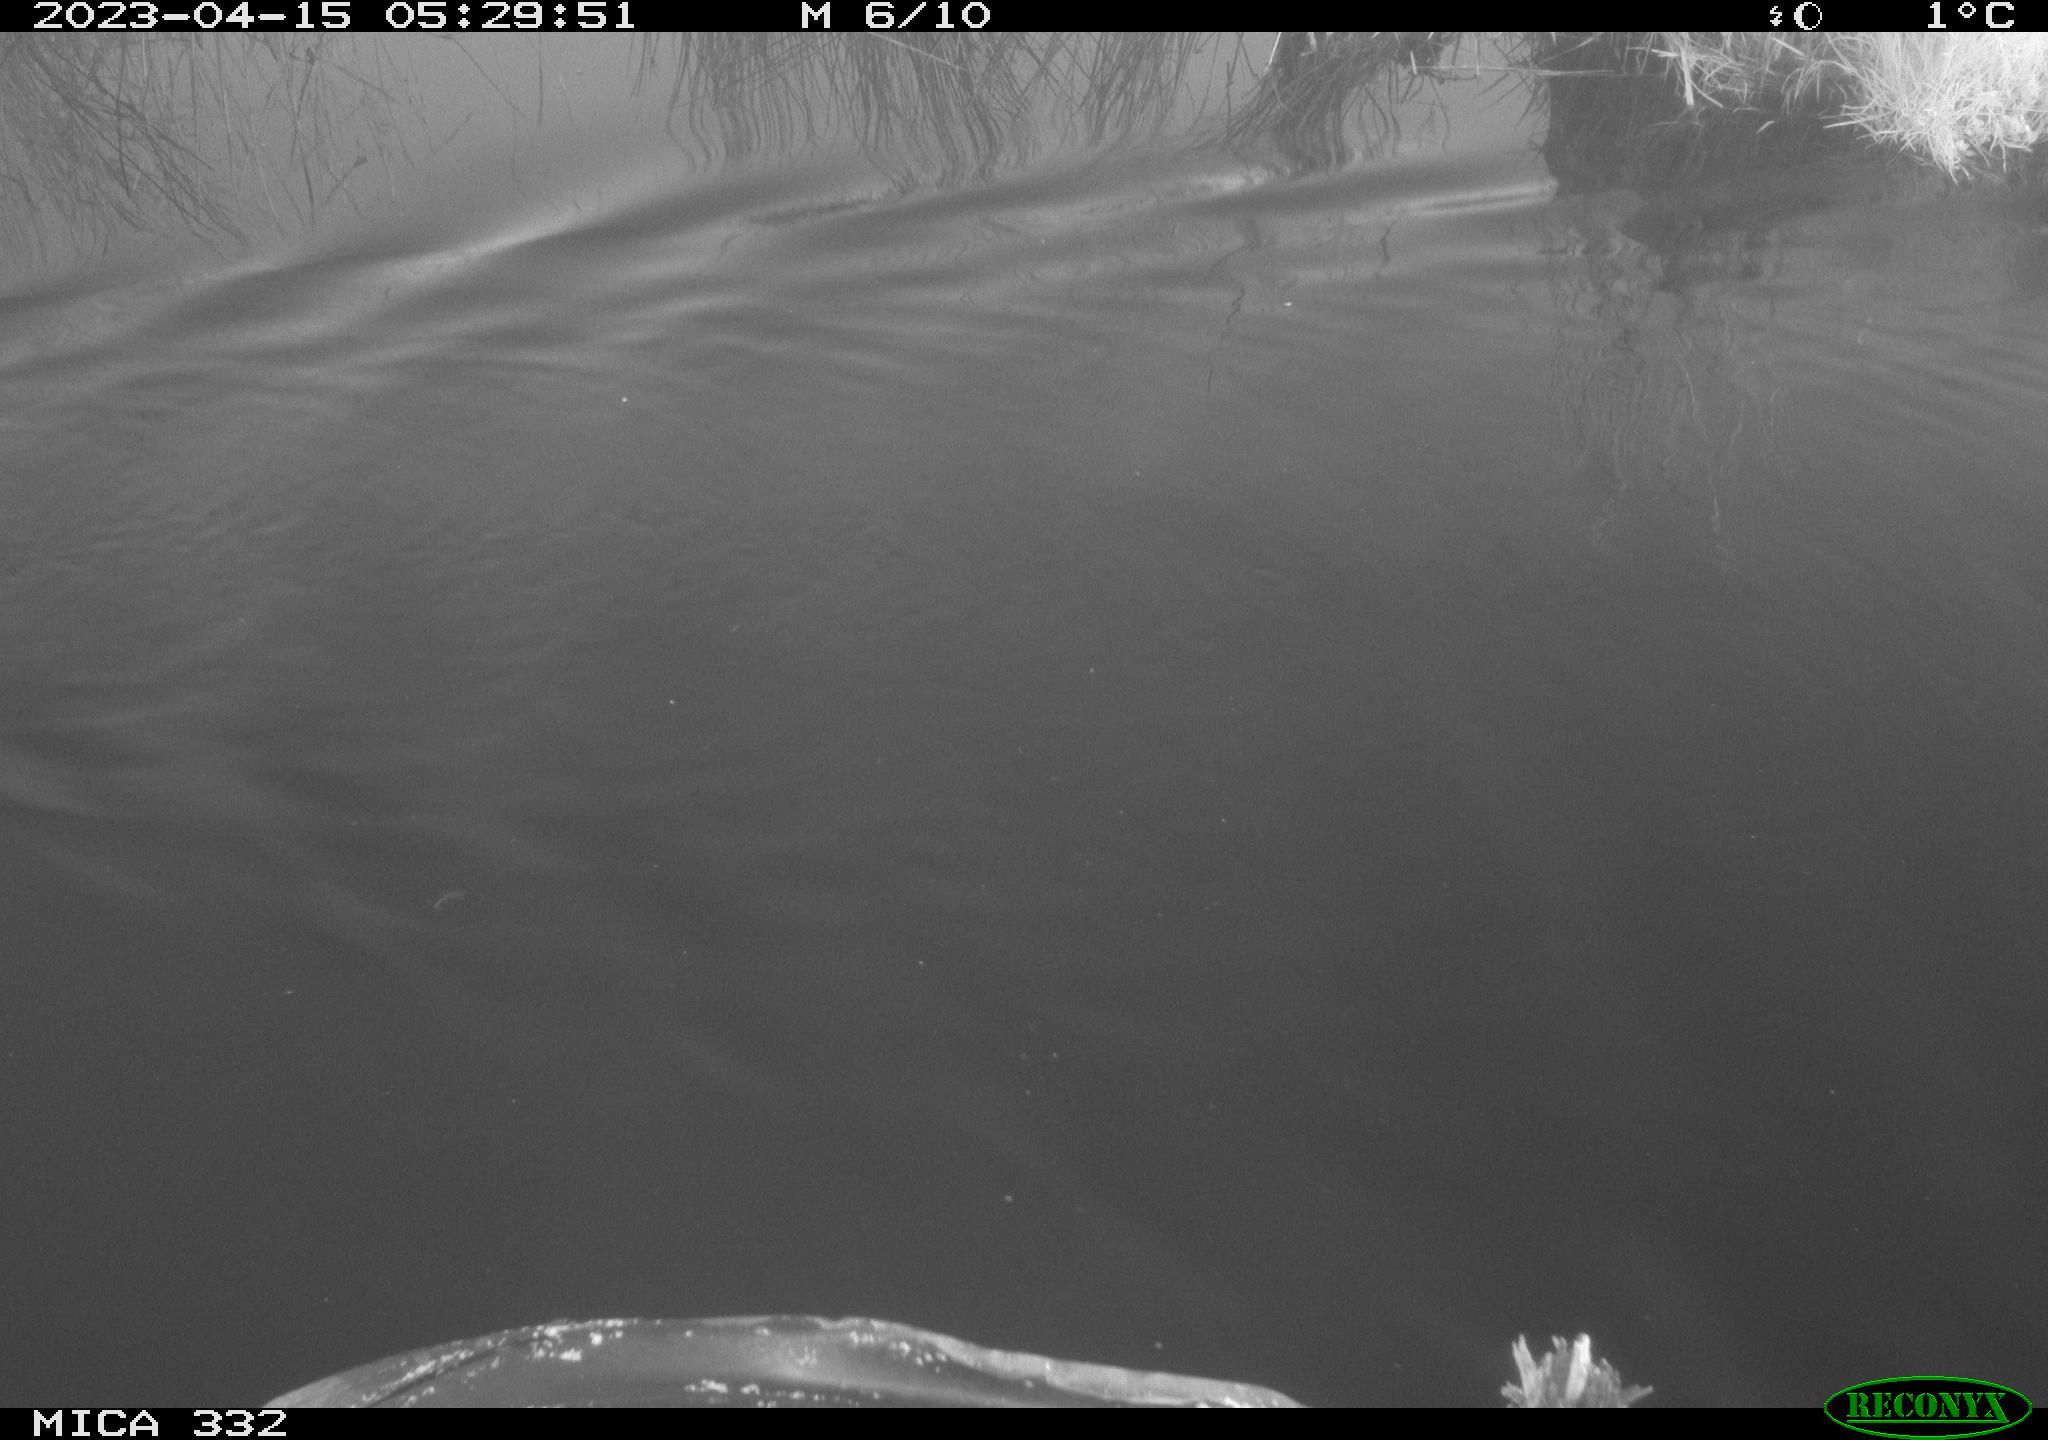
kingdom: Animalia
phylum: Chordata
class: Aves
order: Anseriformes
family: Anatidae
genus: Anas
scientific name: Anas
